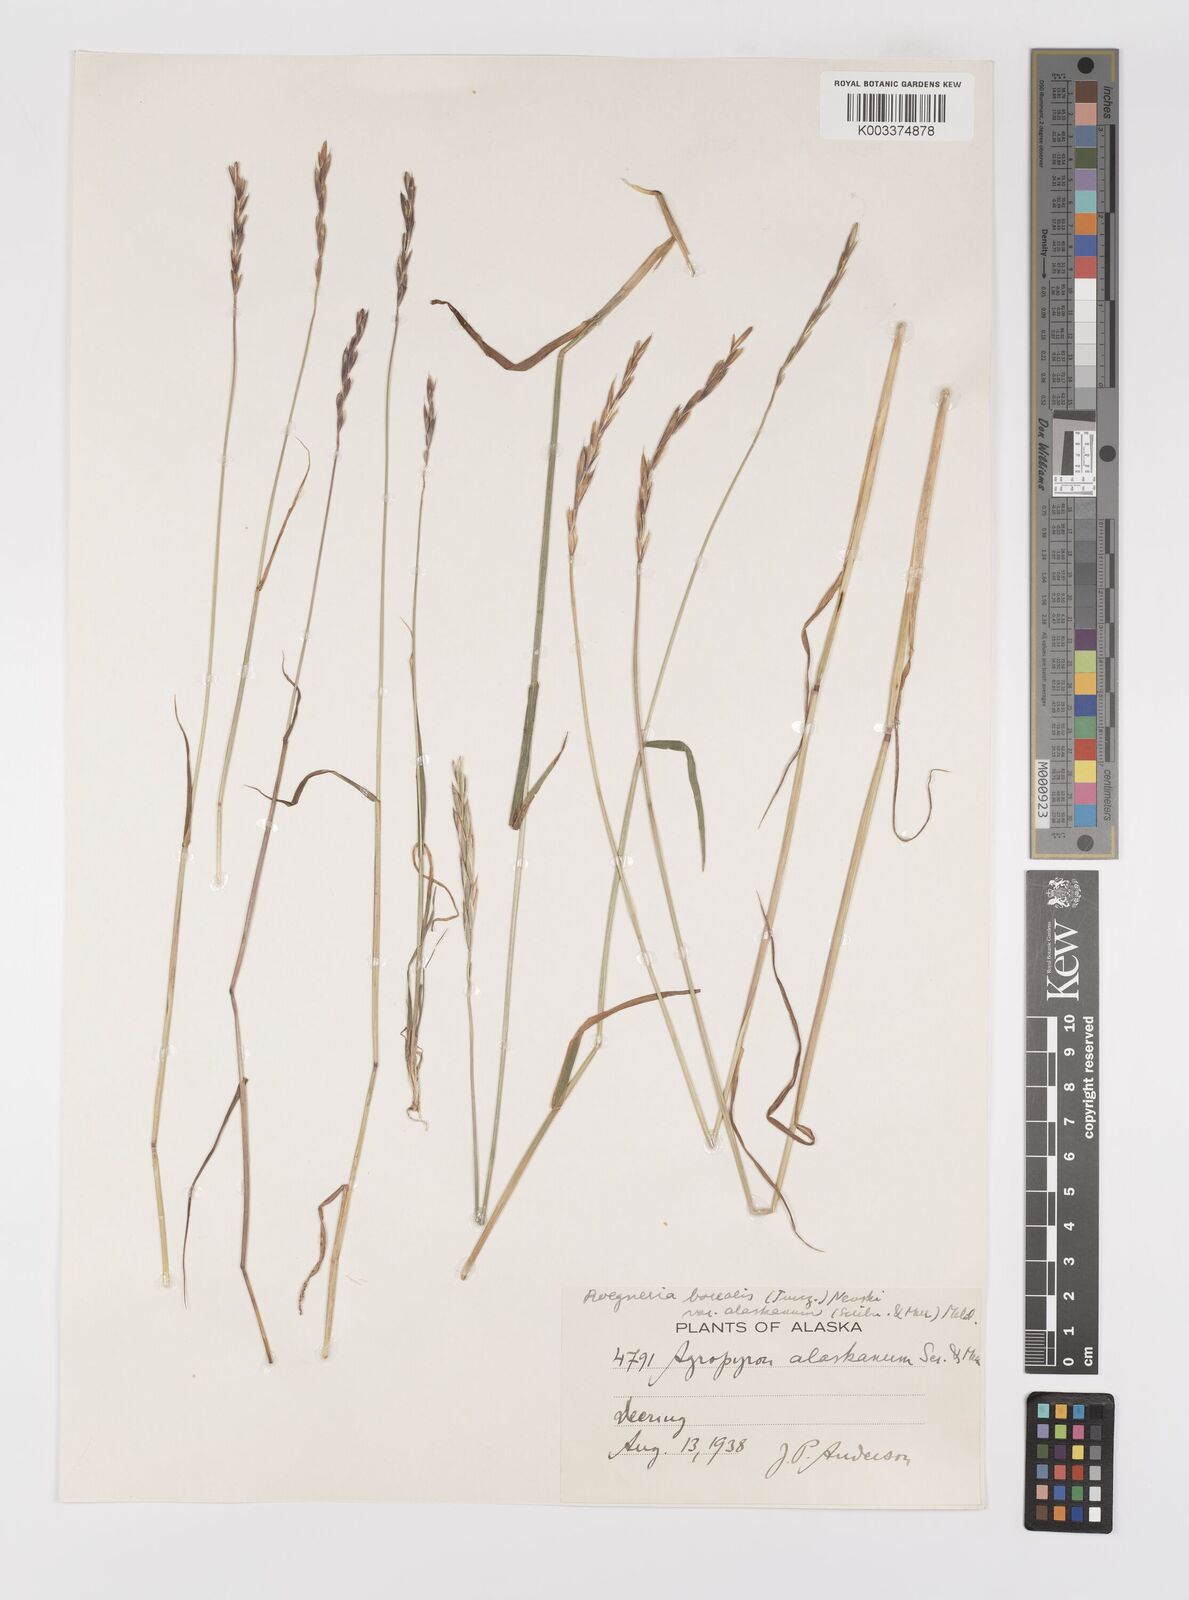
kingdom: Plantae
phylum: Tracheophyta
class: Liliopsida
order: Poales
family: Poaceae
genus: Elymus
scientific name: Elymus violaceus
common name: Arctic wheatgrass
